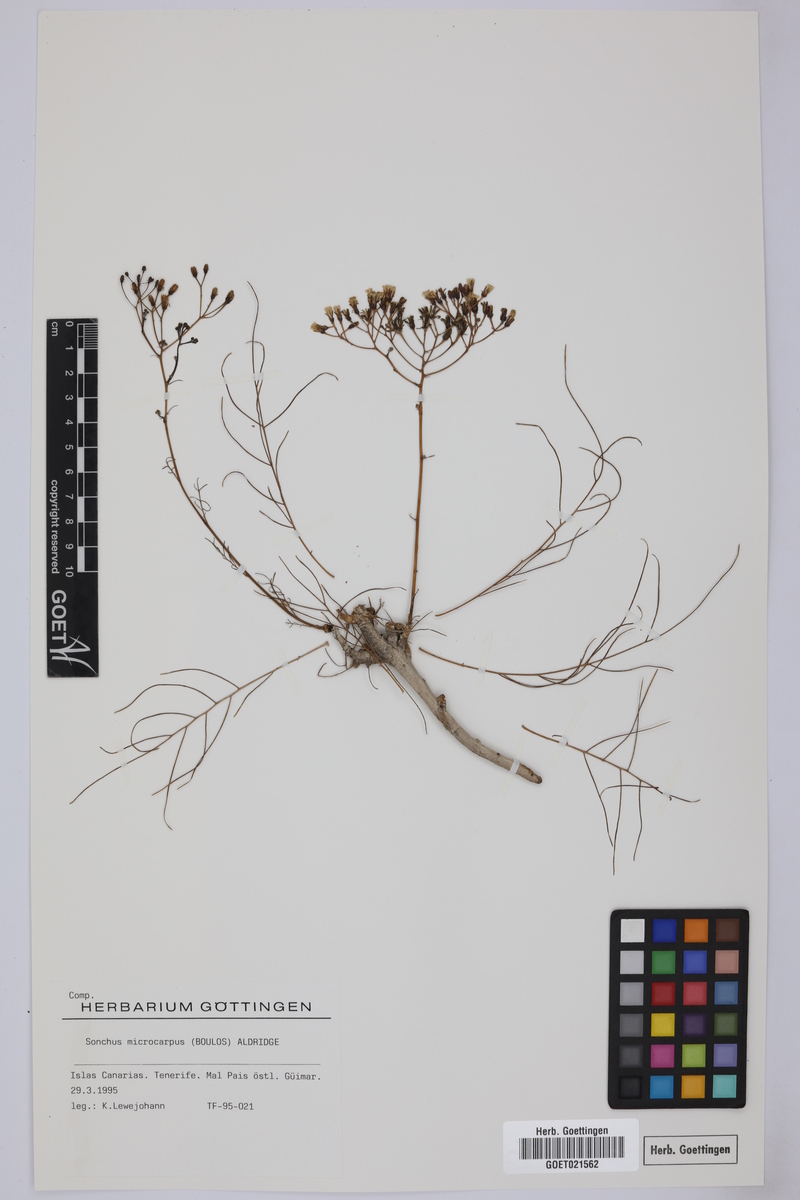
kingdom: Plantae
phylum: Tracheophyta
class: Magnoliopsida
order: Asterales
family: Asteraceae
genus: Sonchus
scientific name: Sonchus microcarpus
